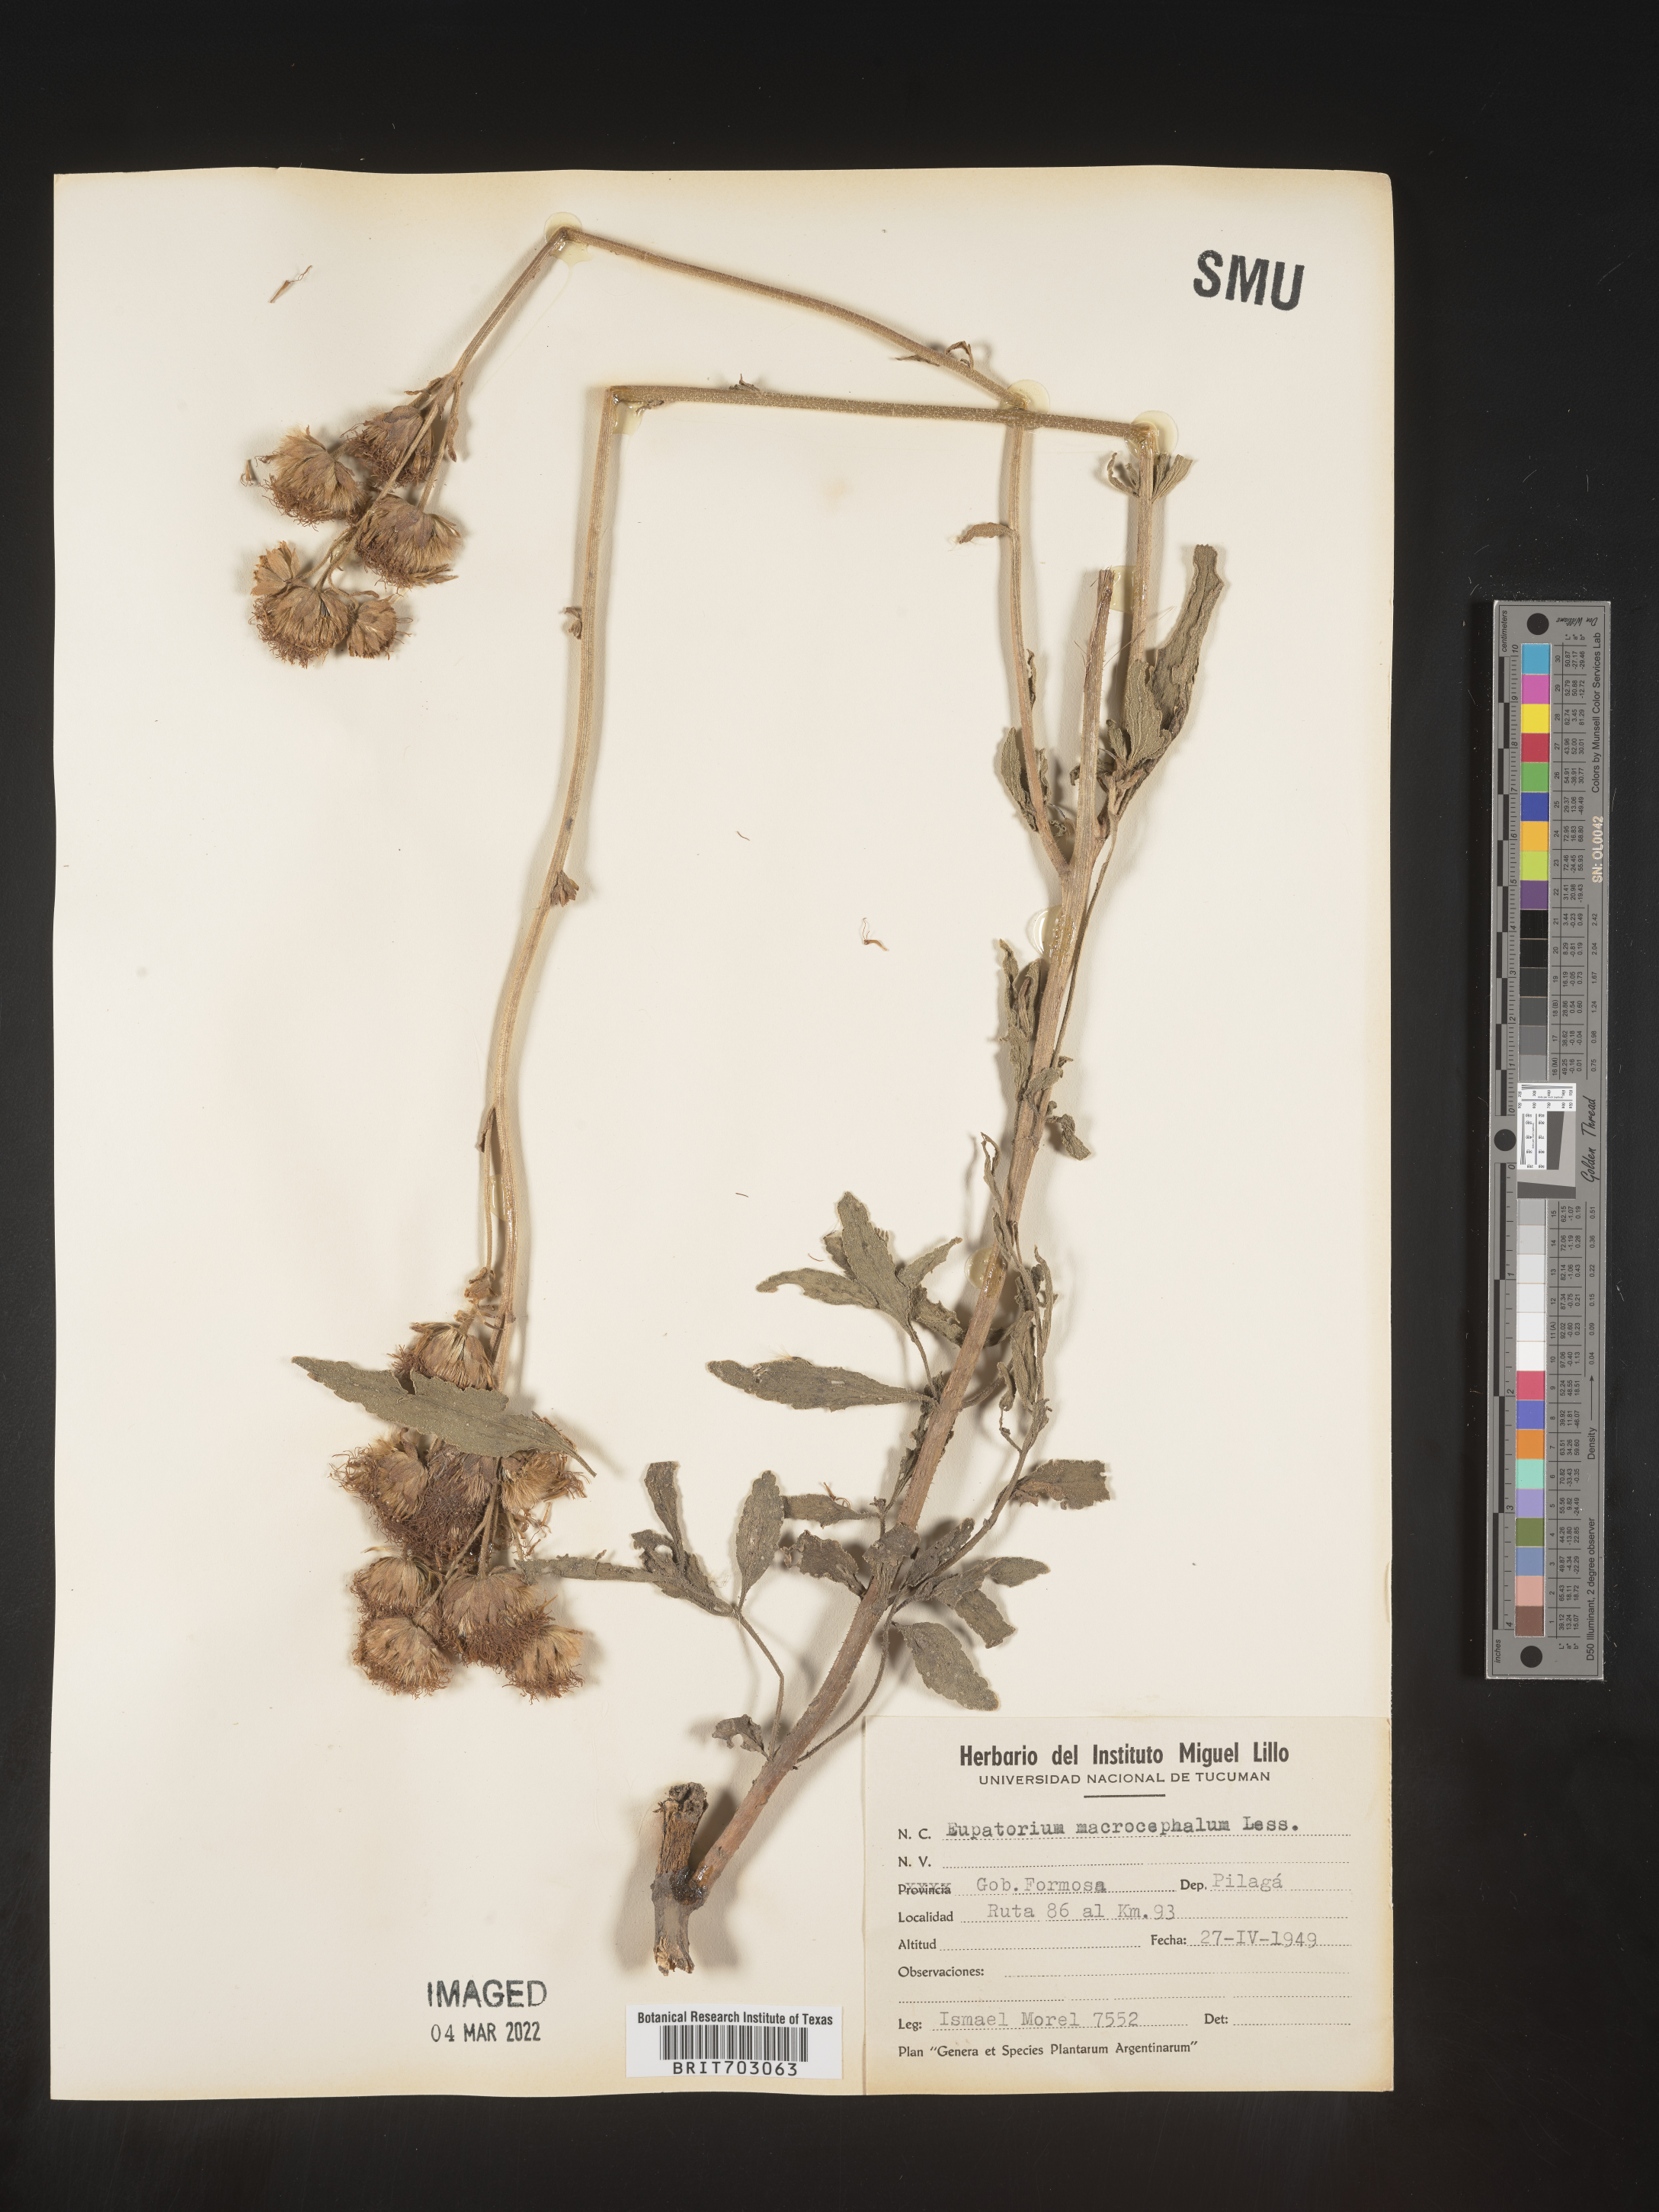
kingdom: Plantae
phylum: Tracheophyta
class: Magnoliopsida
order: Asterales
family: Asteraceae
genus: Eupatorium
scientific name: Eupatorium
